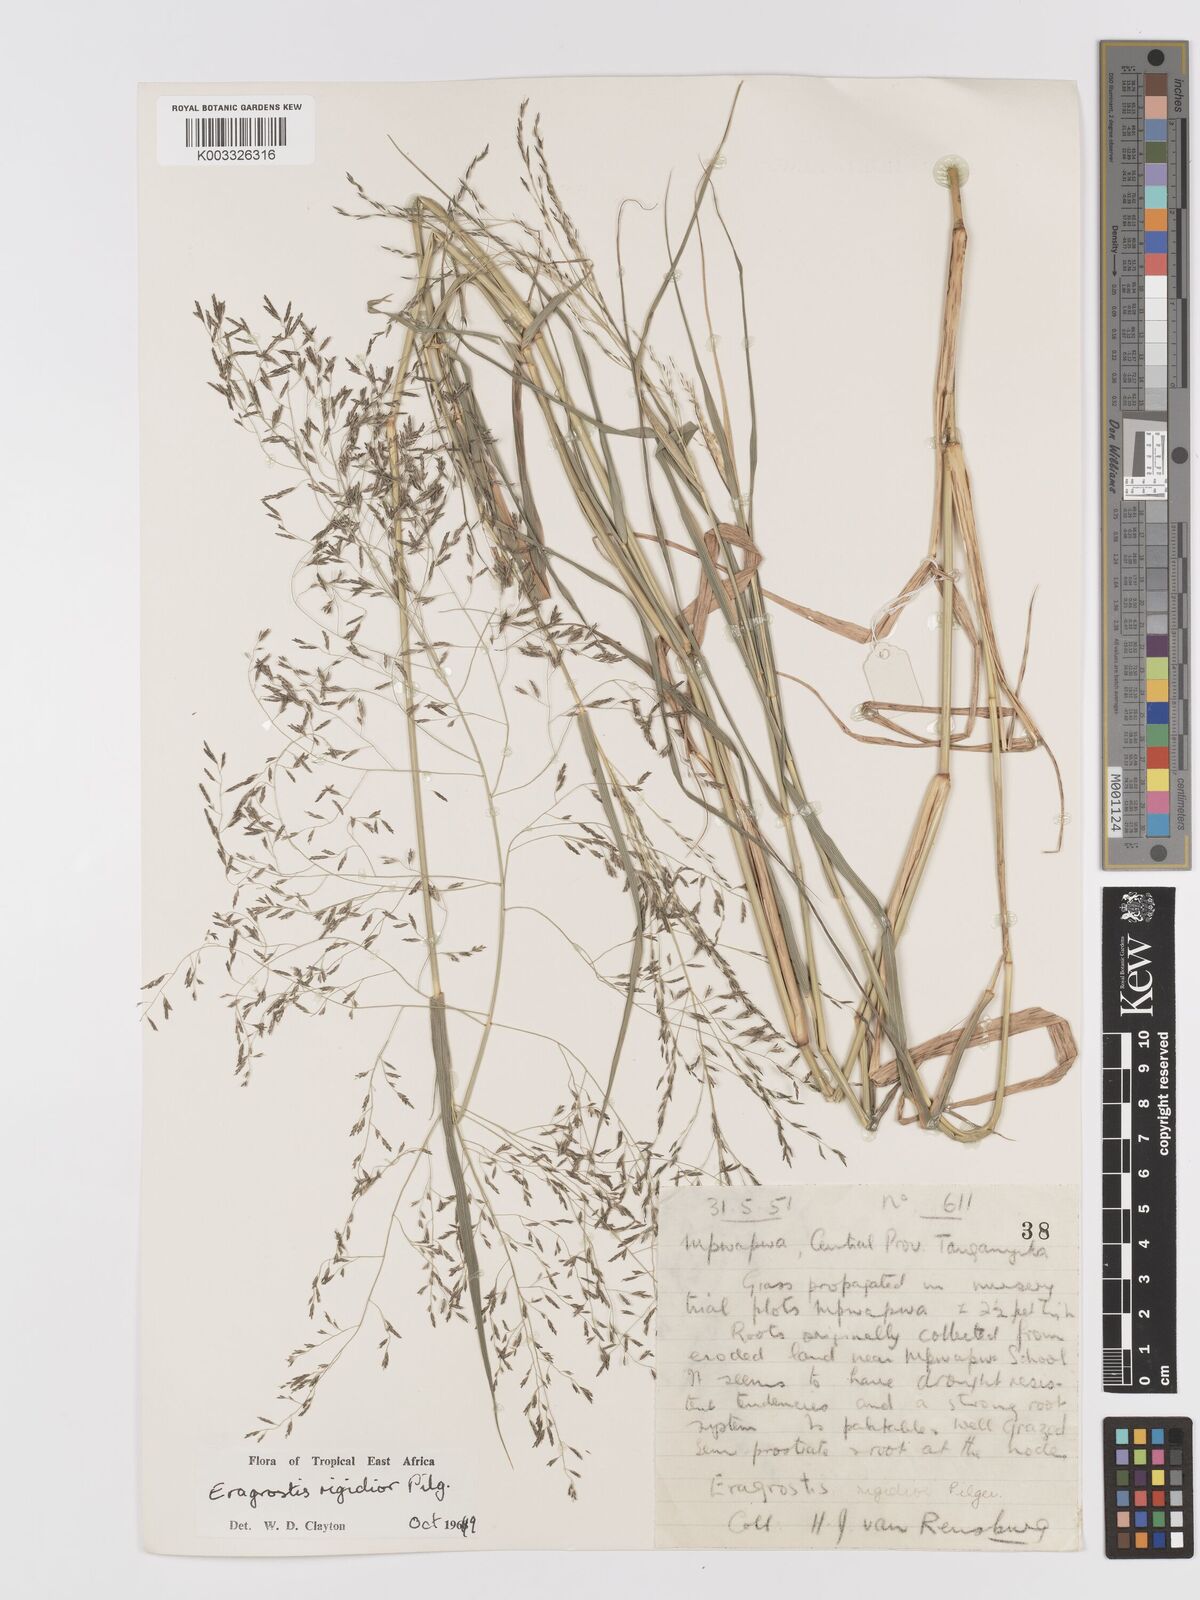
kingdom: Plantae
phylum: Tracheophyta
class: Liliopsida
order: Poales
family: Poaceae
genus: Eragrostis
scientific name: Eragrostis cylindriflora
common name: Cylinderflower lovegrass
